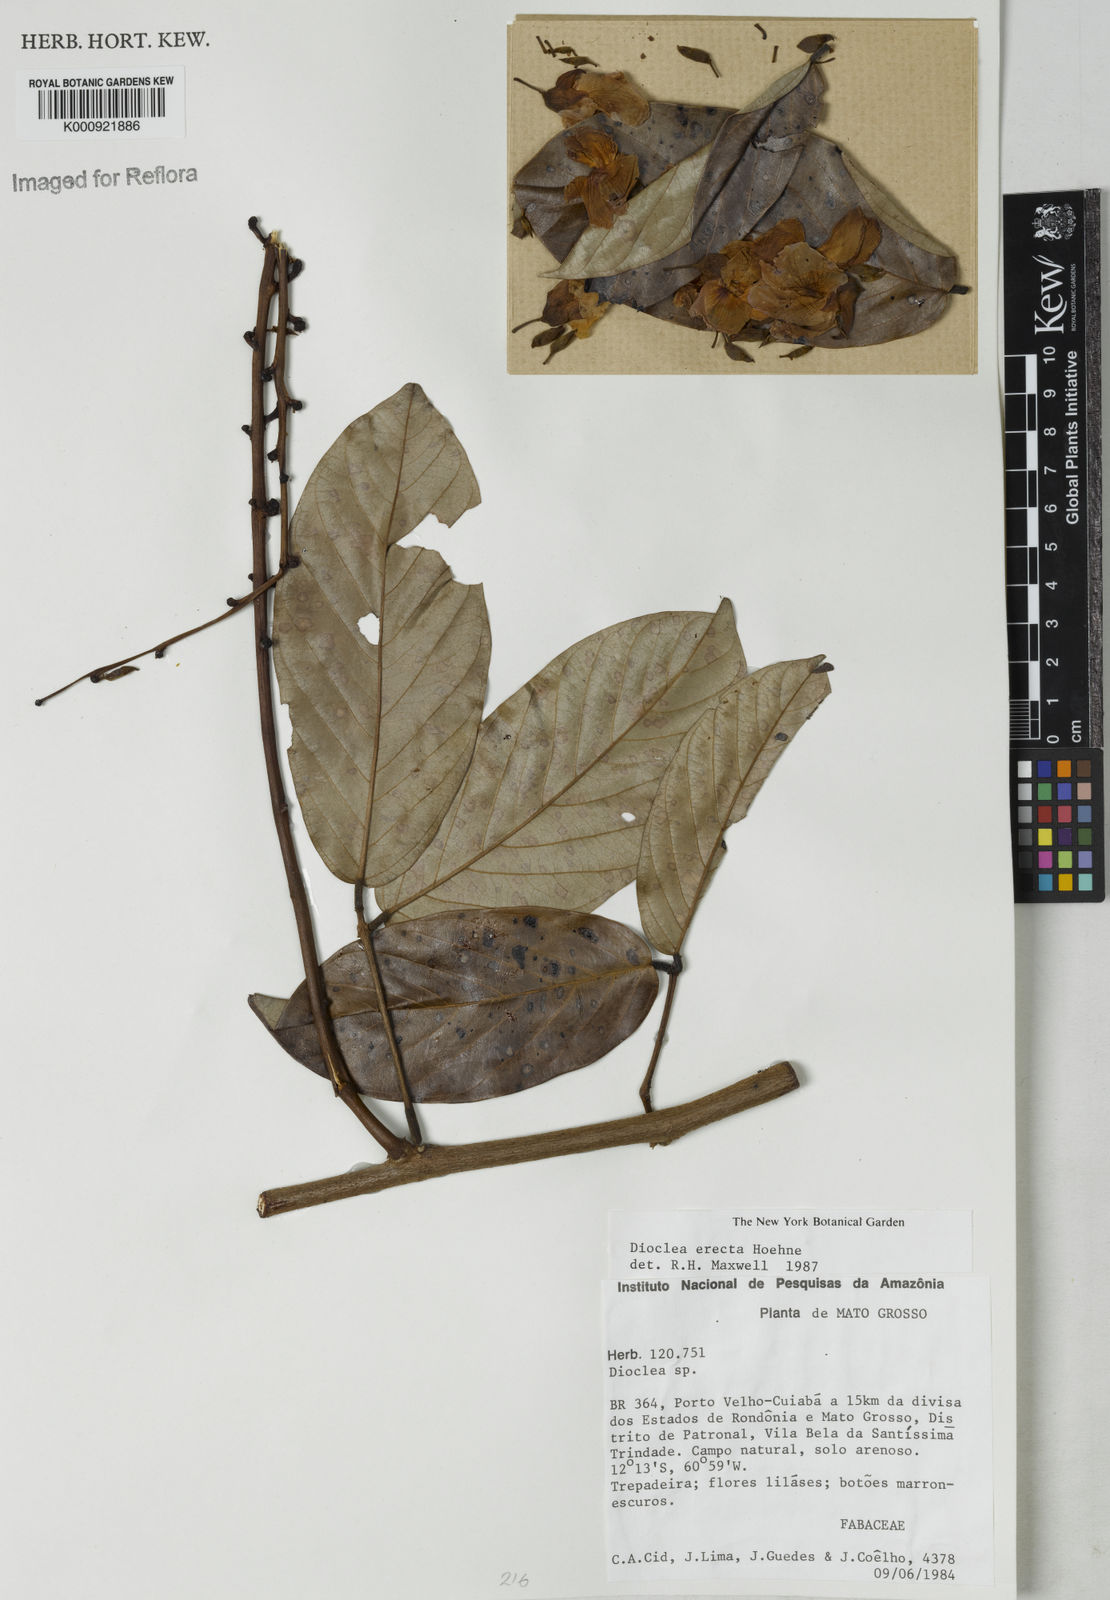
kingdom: Plantae
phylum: Tracheophyta
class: Magnoliopsida
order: Fabales
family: Fabaceae
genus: Macropsychanthus
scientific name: Macropsychanthus erectus
